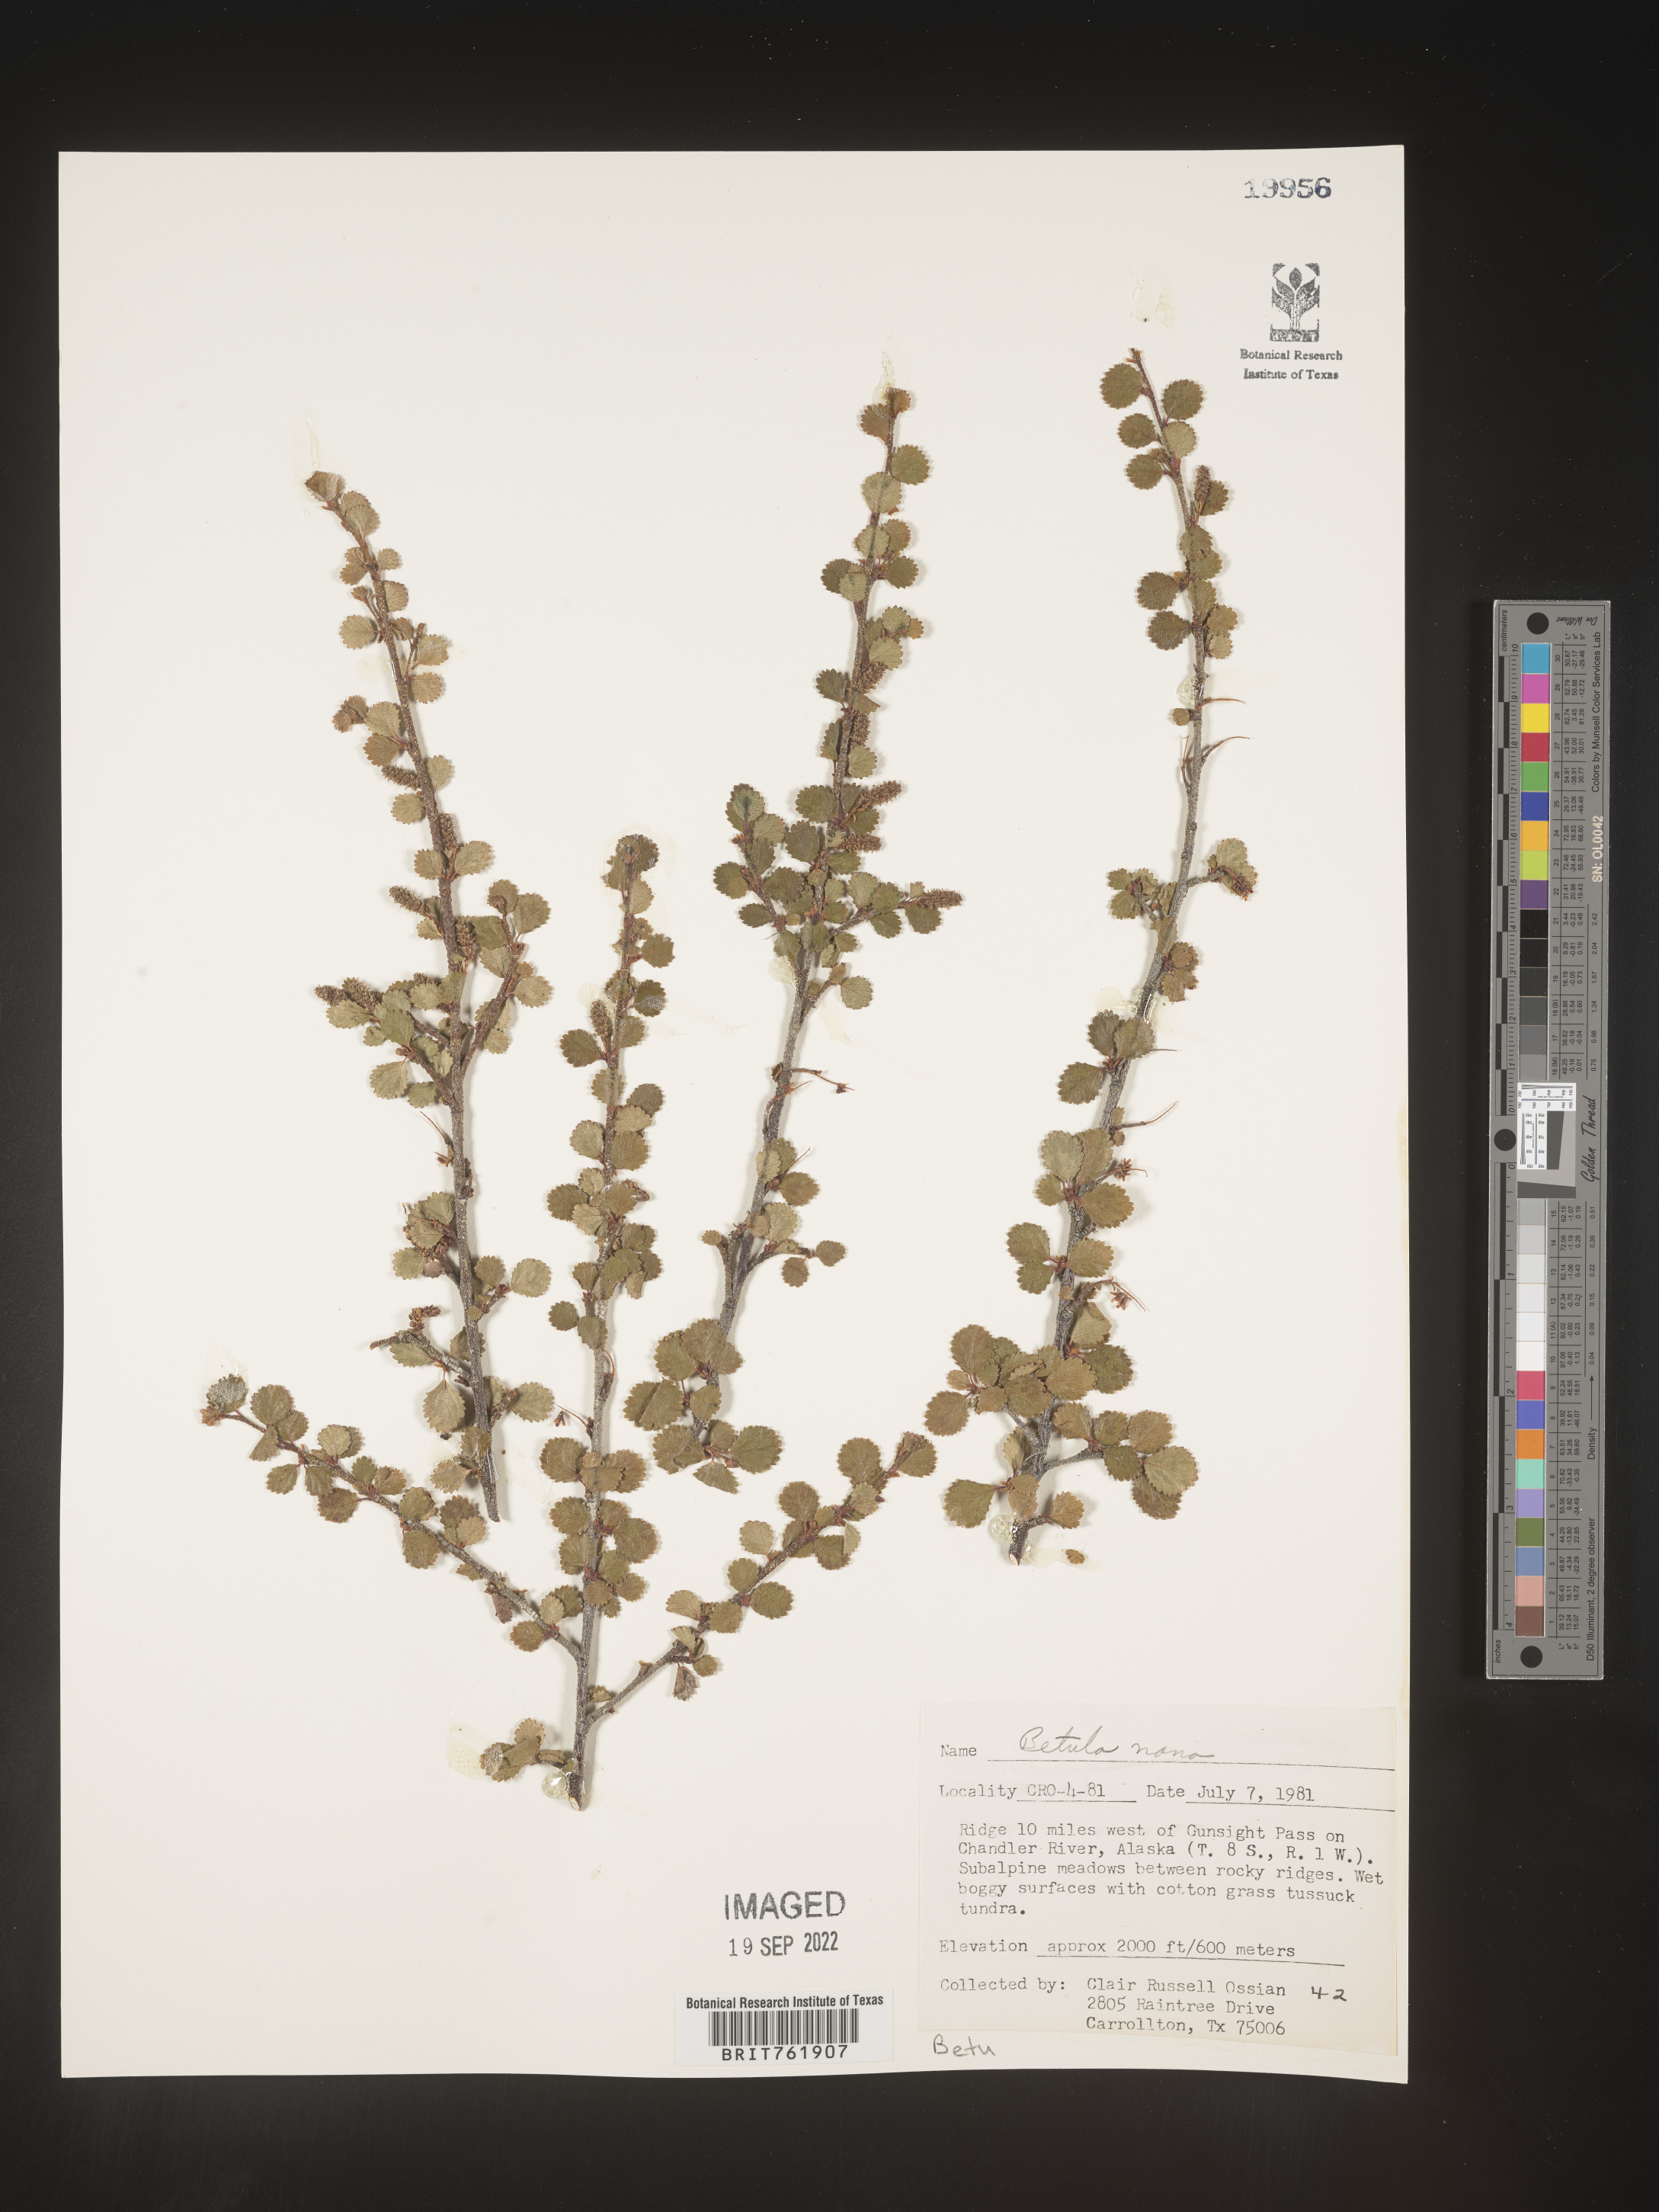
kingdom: Plantae
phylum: Tracheophyta
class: Magnoliopsida
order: Fagales
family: Betulaceae
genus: Betula
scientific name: Betula nana
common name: Arctic dwarf birch
